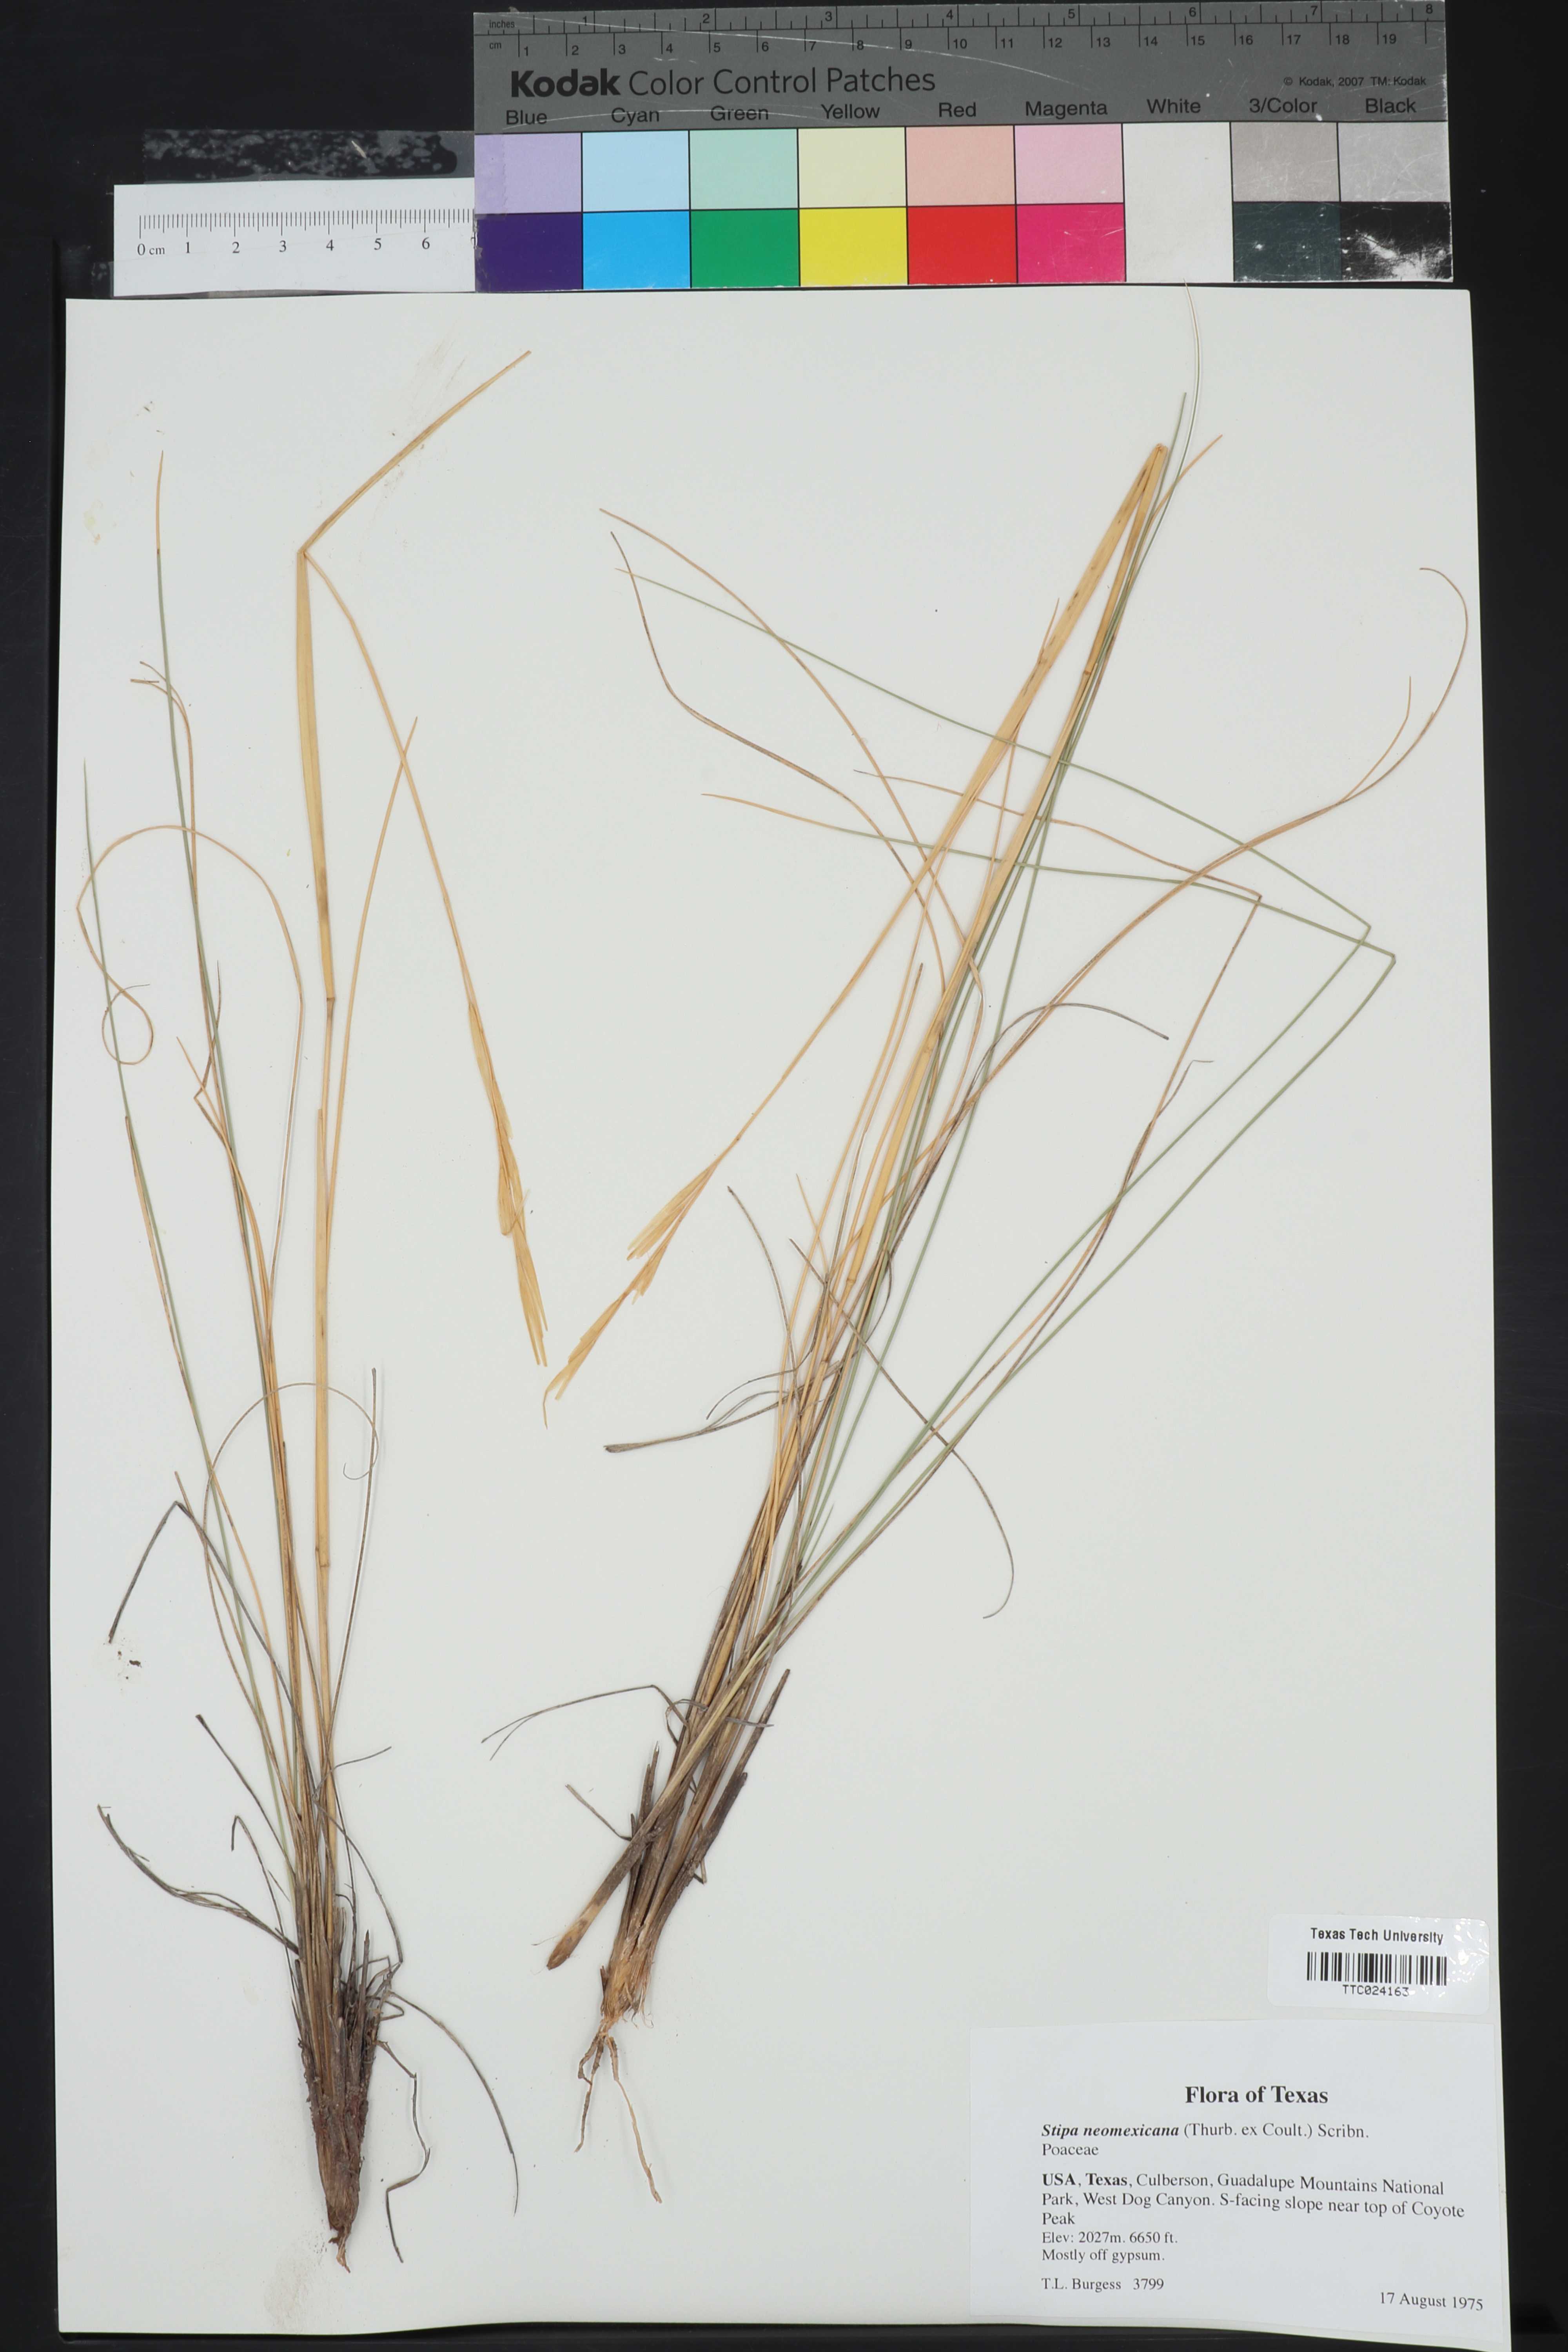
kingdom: Plantae
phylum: Tracheophyta
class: Liliopsida
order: Poales
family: Poaceae
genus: Hesperostipa
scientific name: Hesperostipa neomexicana
